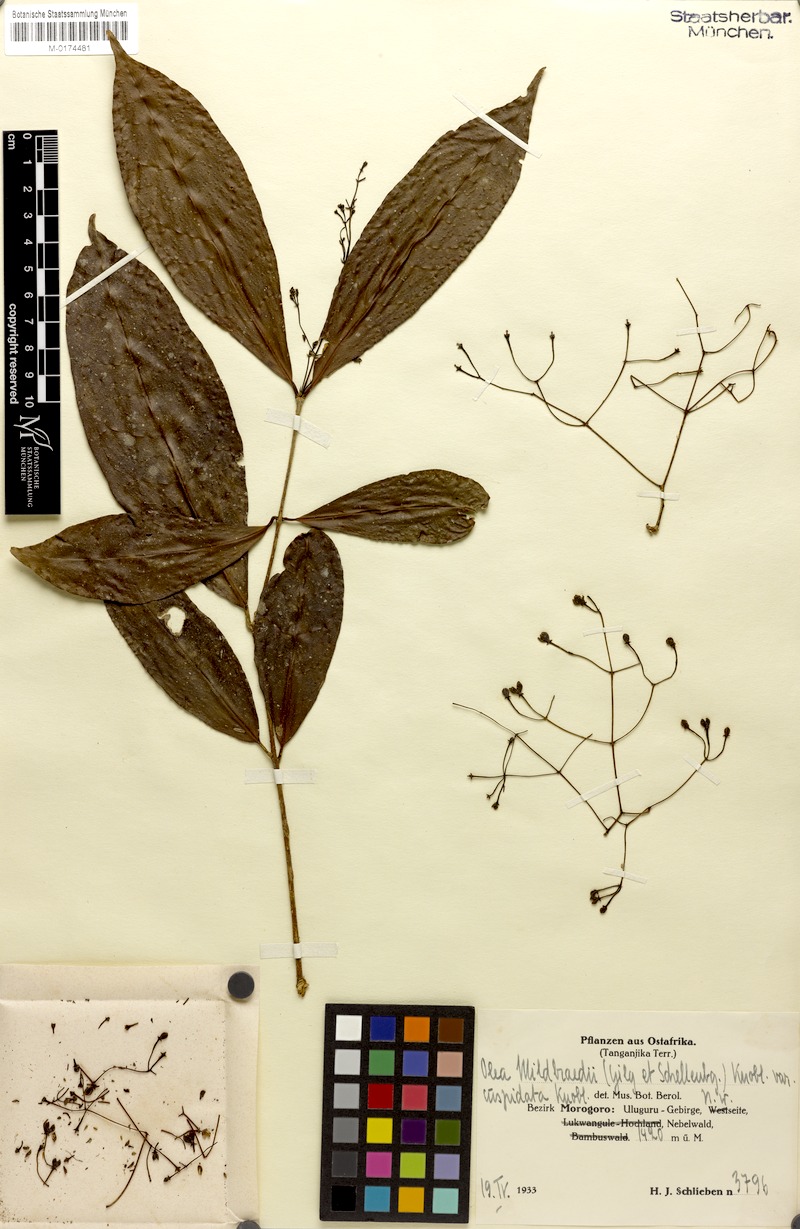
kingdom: Plantae
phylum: Tracheophyta
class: Magnoliopsida
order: Lamiales
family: Oleaceae
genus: Noronhia
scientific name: Noronhia mildbraedii
